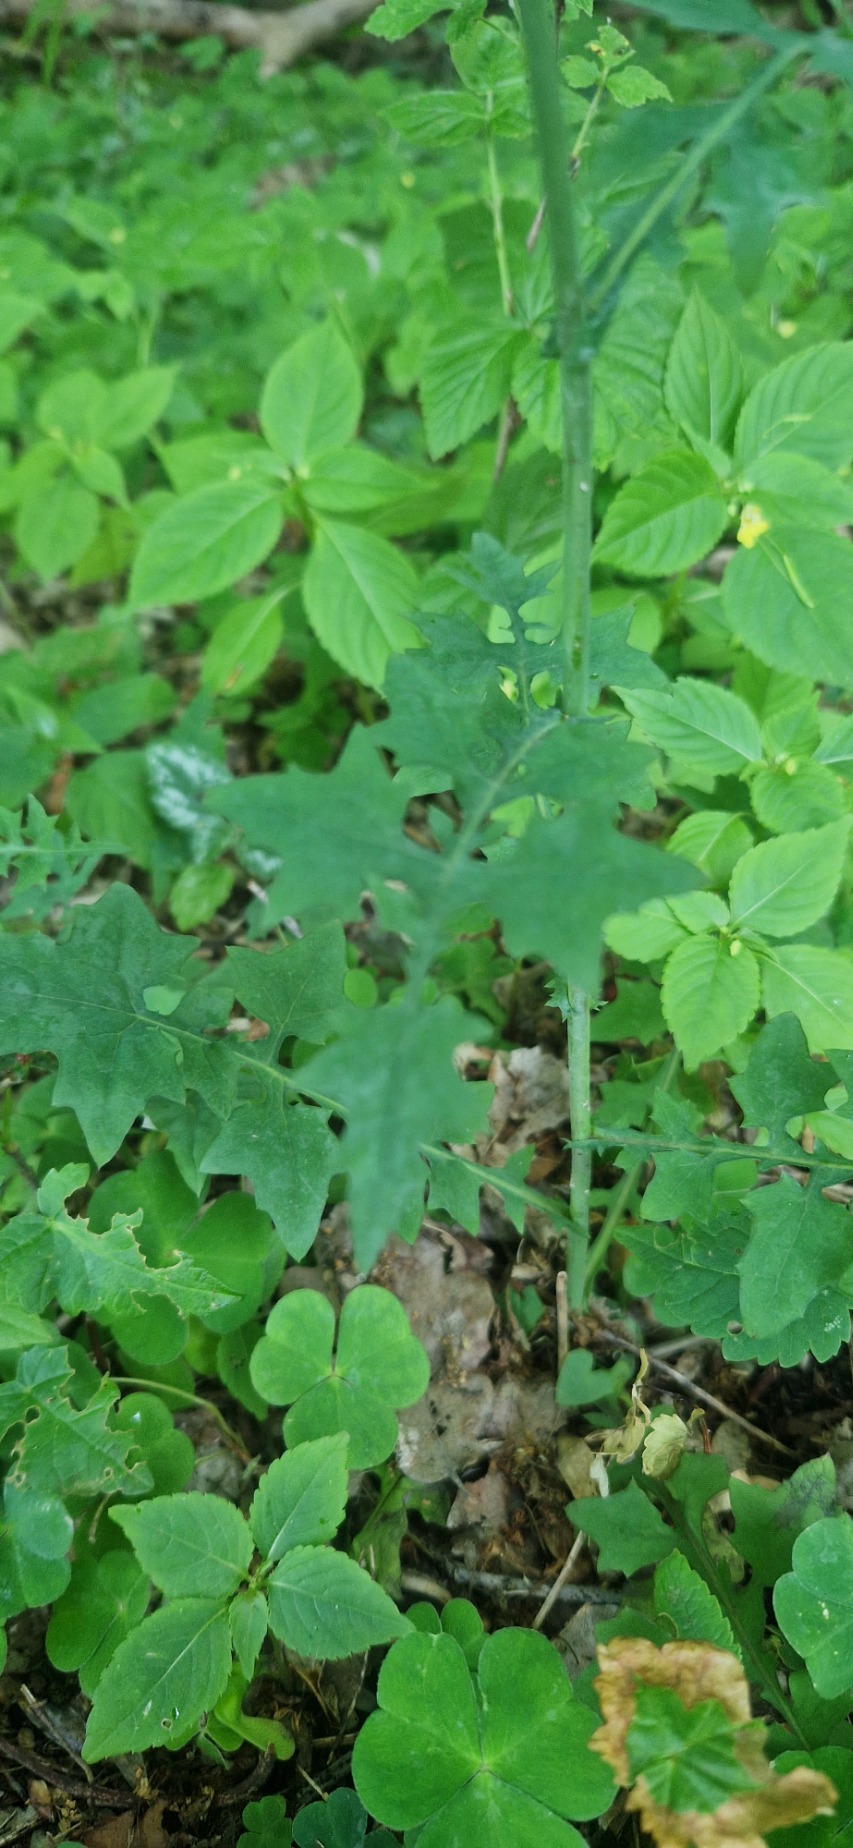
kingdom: Plantae
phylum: Tracheophyta
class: Magnoliopsida
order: Asterales
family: Asteraceae
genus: Mycelis
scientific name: Mycelis muralis
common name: Skov-salat
